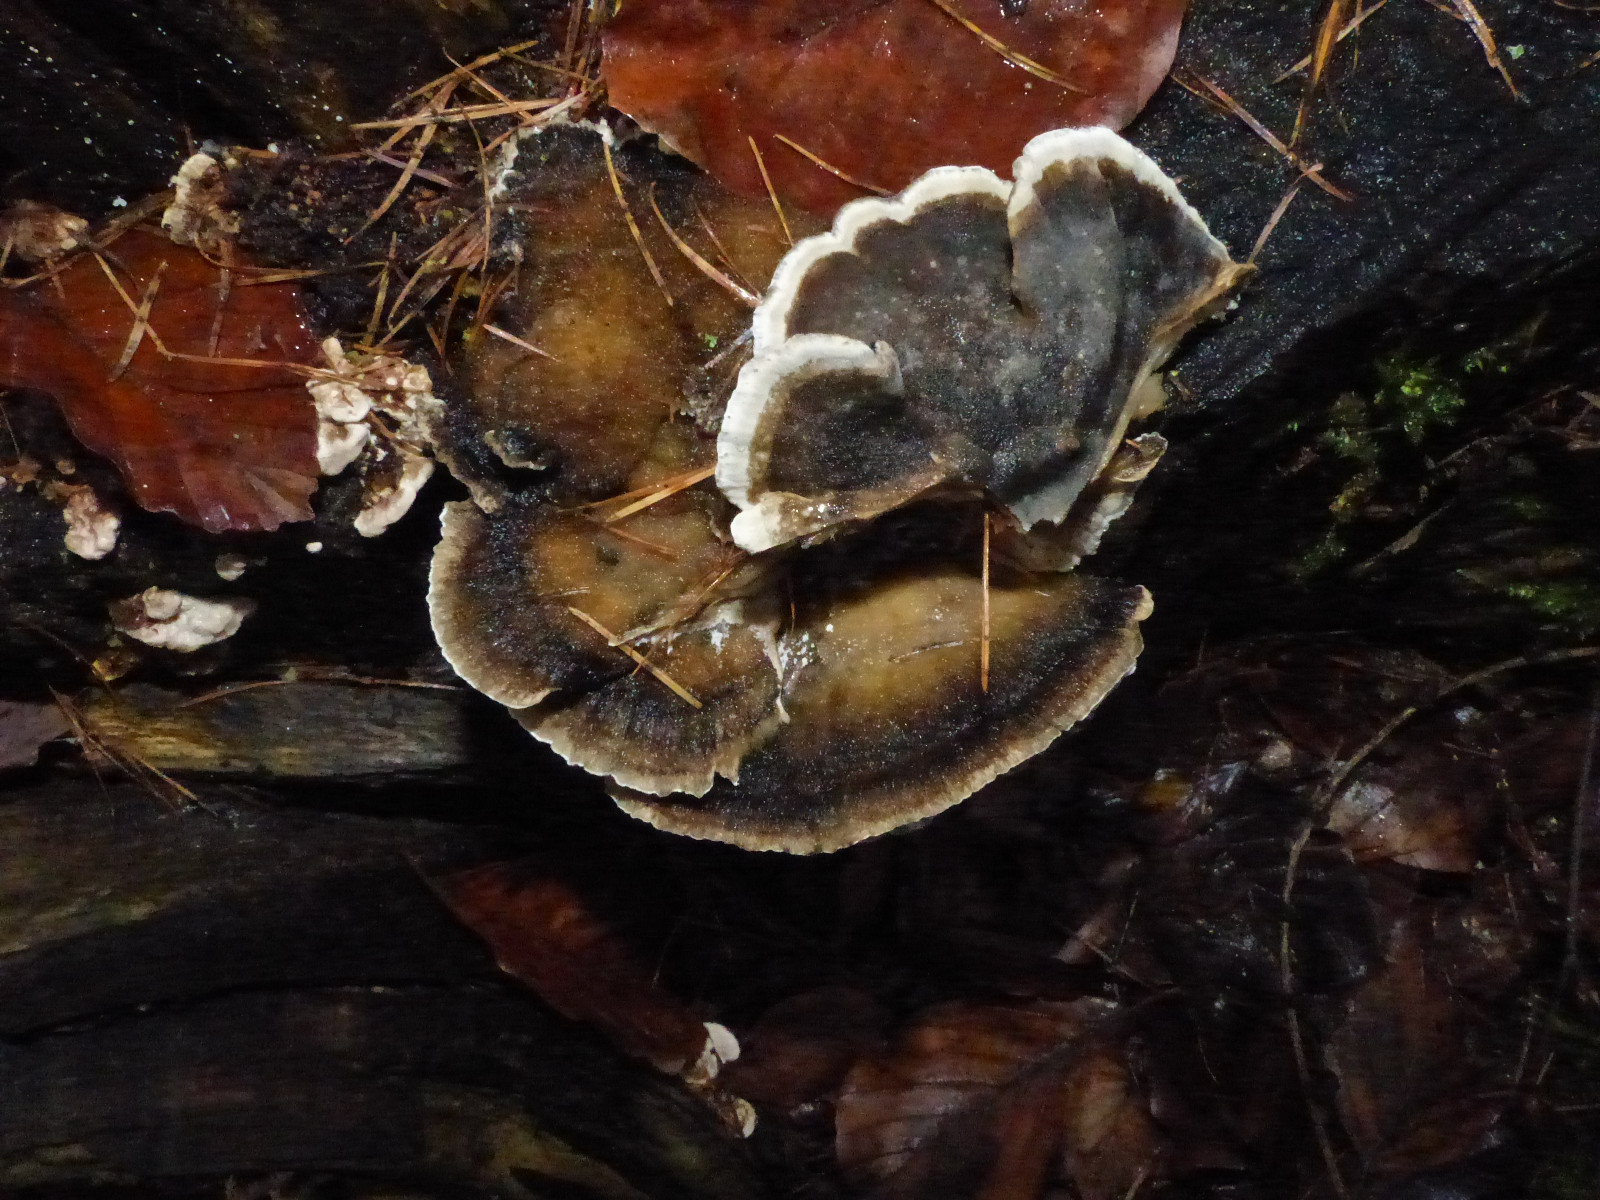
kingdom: Fungi
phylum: Basidiomycota
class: Agaricomycetes
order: Polyporales
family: Phanerochaetaceae
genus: Bjerkandera
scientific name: Bjerkandera adusta
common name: sveden sodporesvamp
